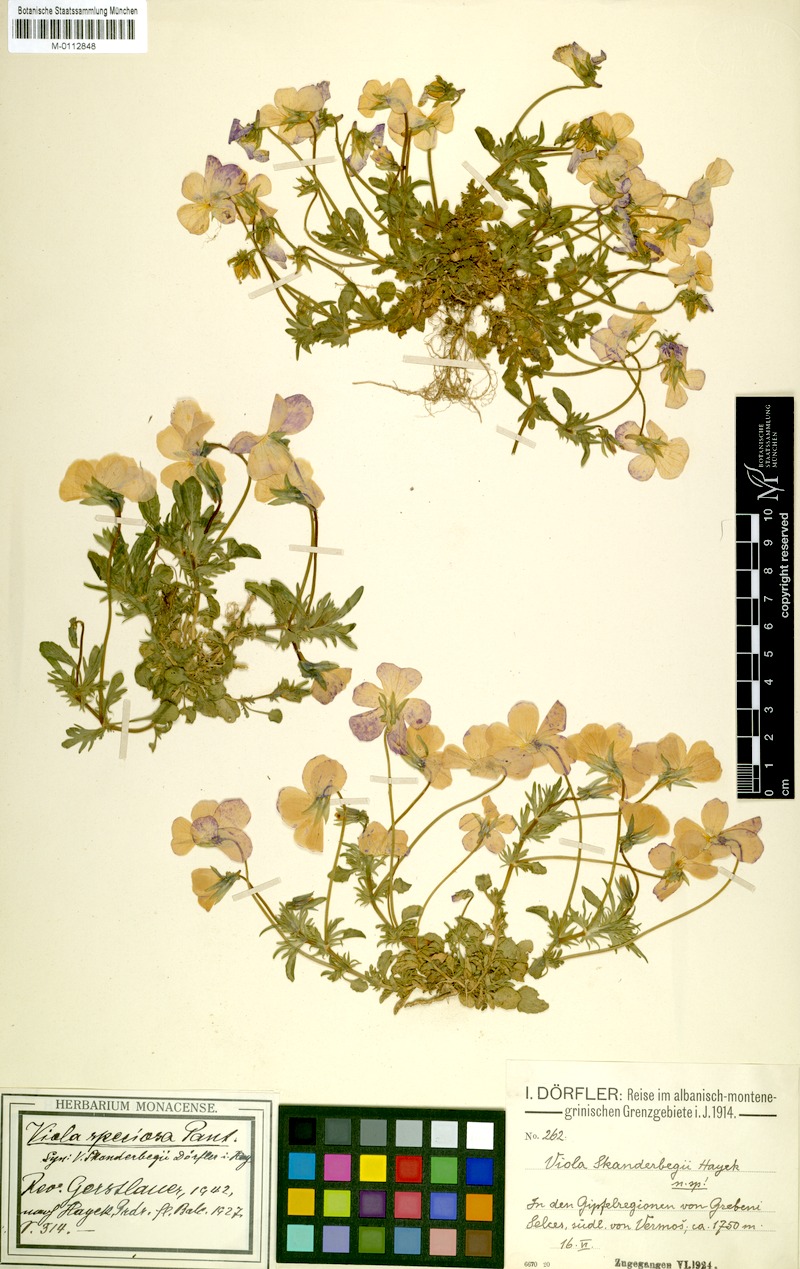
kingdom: Plantae
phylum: Tracheophyta
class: Magnoliopsida
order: Malpighiales
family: Violaceae
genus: Viola
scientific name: Viola skanderbegii
